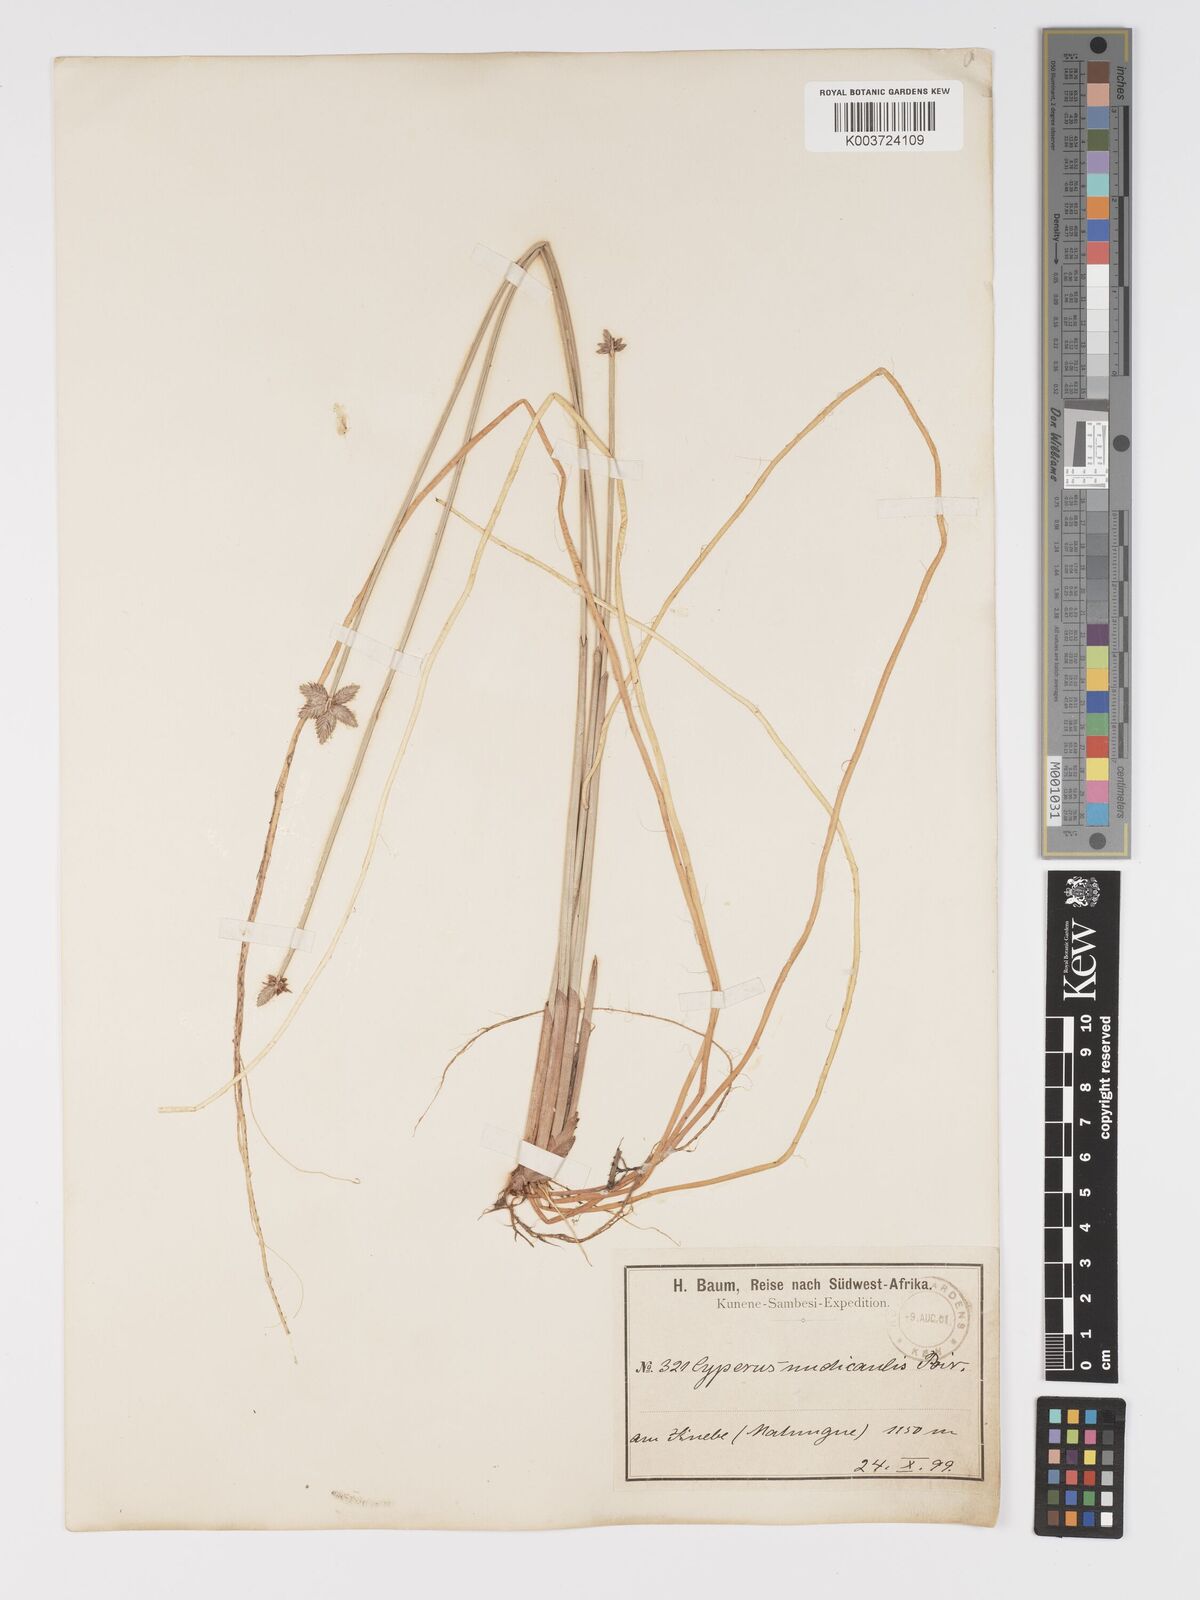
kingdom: Plantae
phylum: Tracheophyta
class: Liliopsida
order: Poales
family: Cyperaceae
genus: Cyperus
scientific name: Cyperus compressus
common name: Poorland flatsedge
